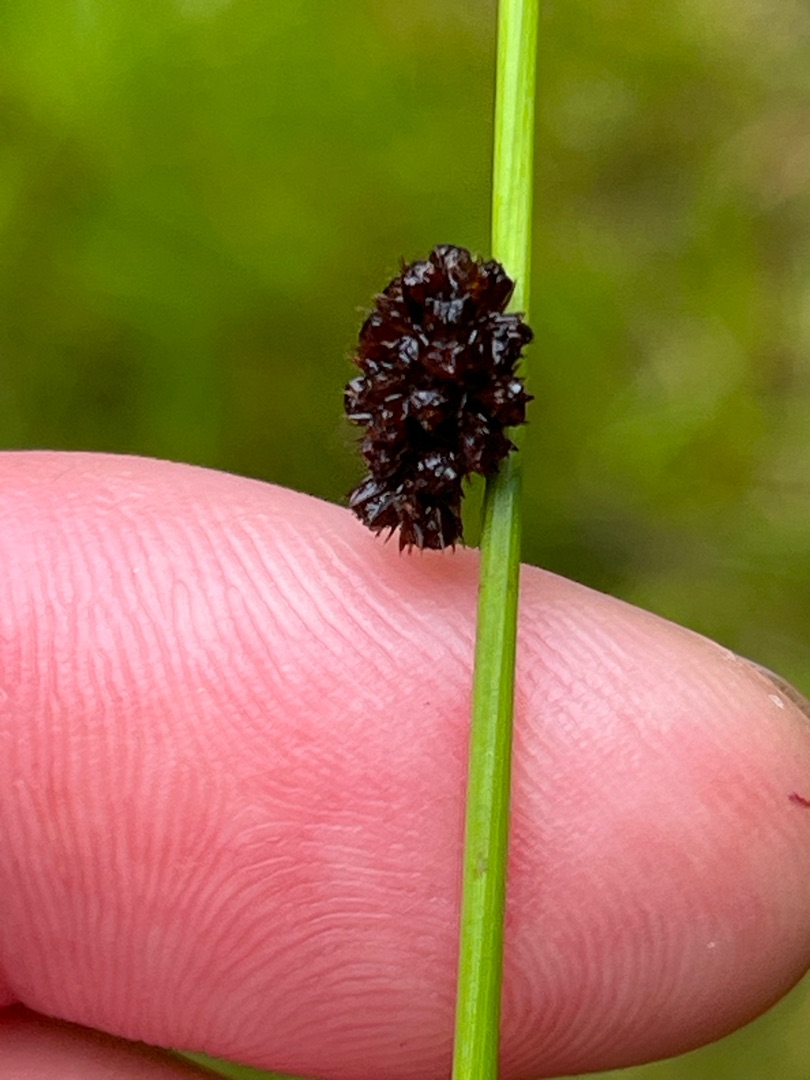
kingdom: Plantae
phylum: Tracheophyta
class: Liliopsida
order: Poales
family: Juncaceae
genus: Juncus
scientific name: Juncus conglomeratus
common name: Knop-siv
